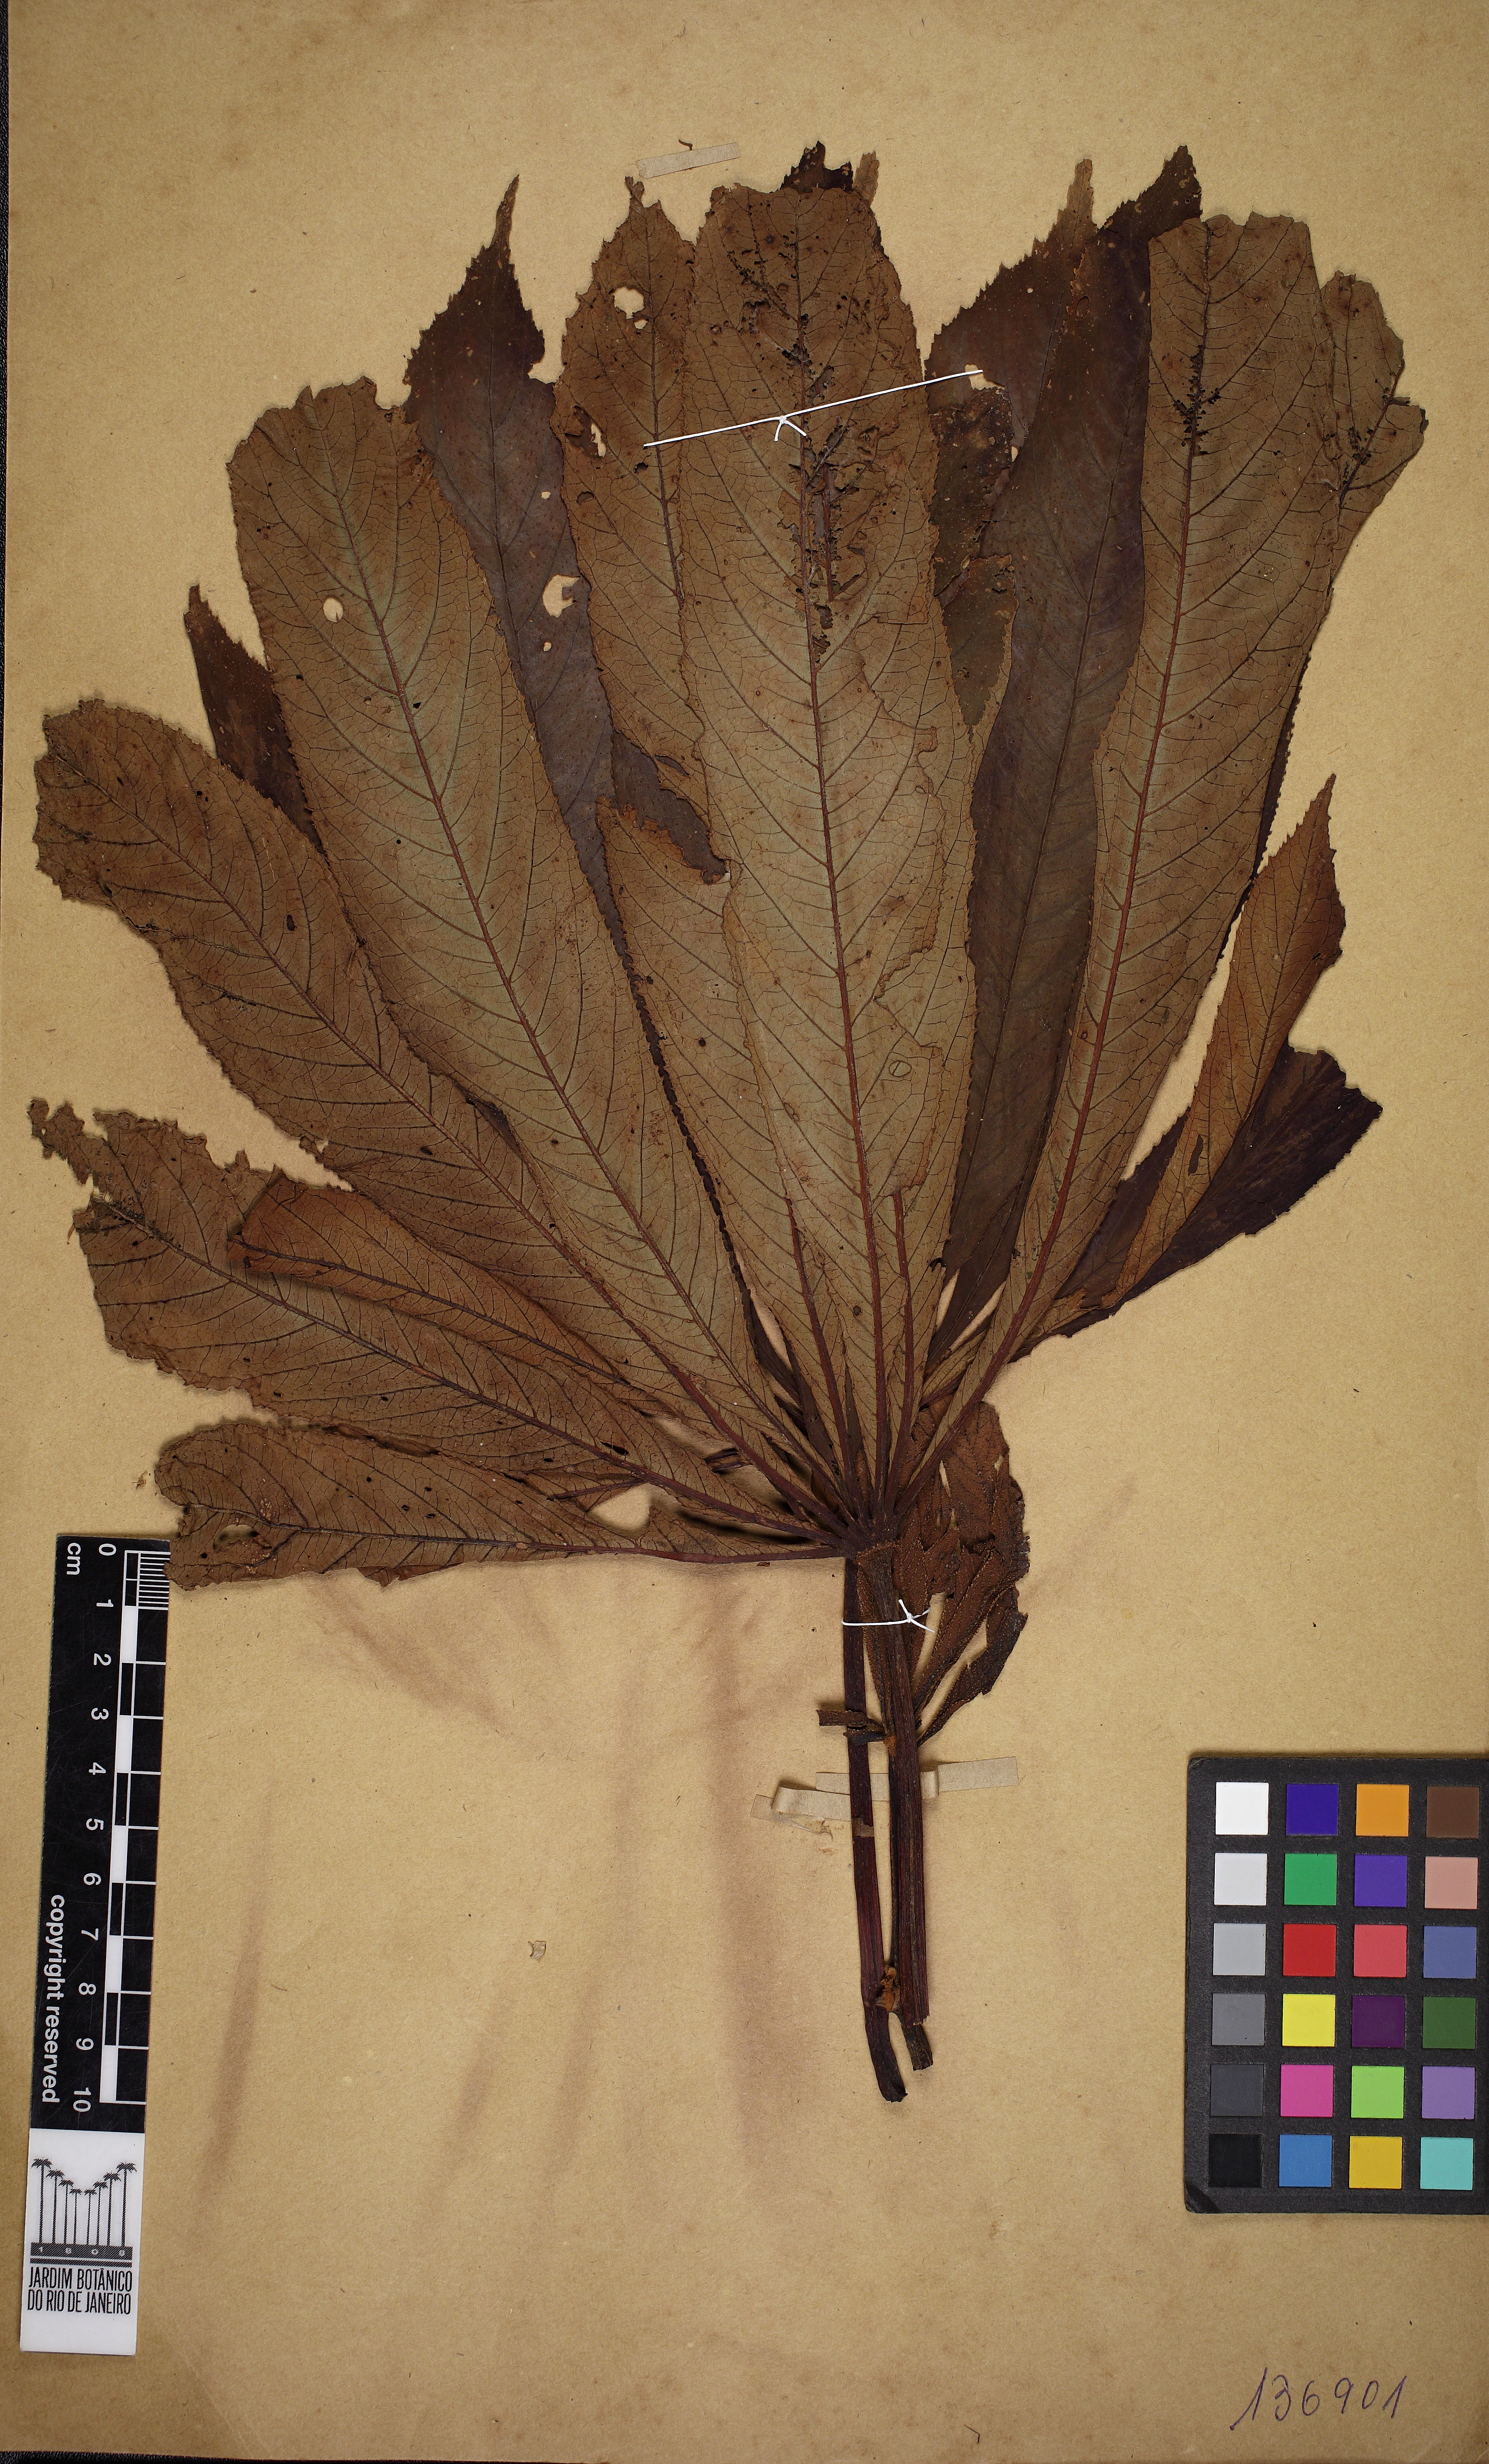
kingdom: Plantae
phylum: Tracheophyta
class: Magnoliopsida
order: Cucurbitales
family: Begoniaceae
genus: Begonia
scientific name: Begonia luxurians
